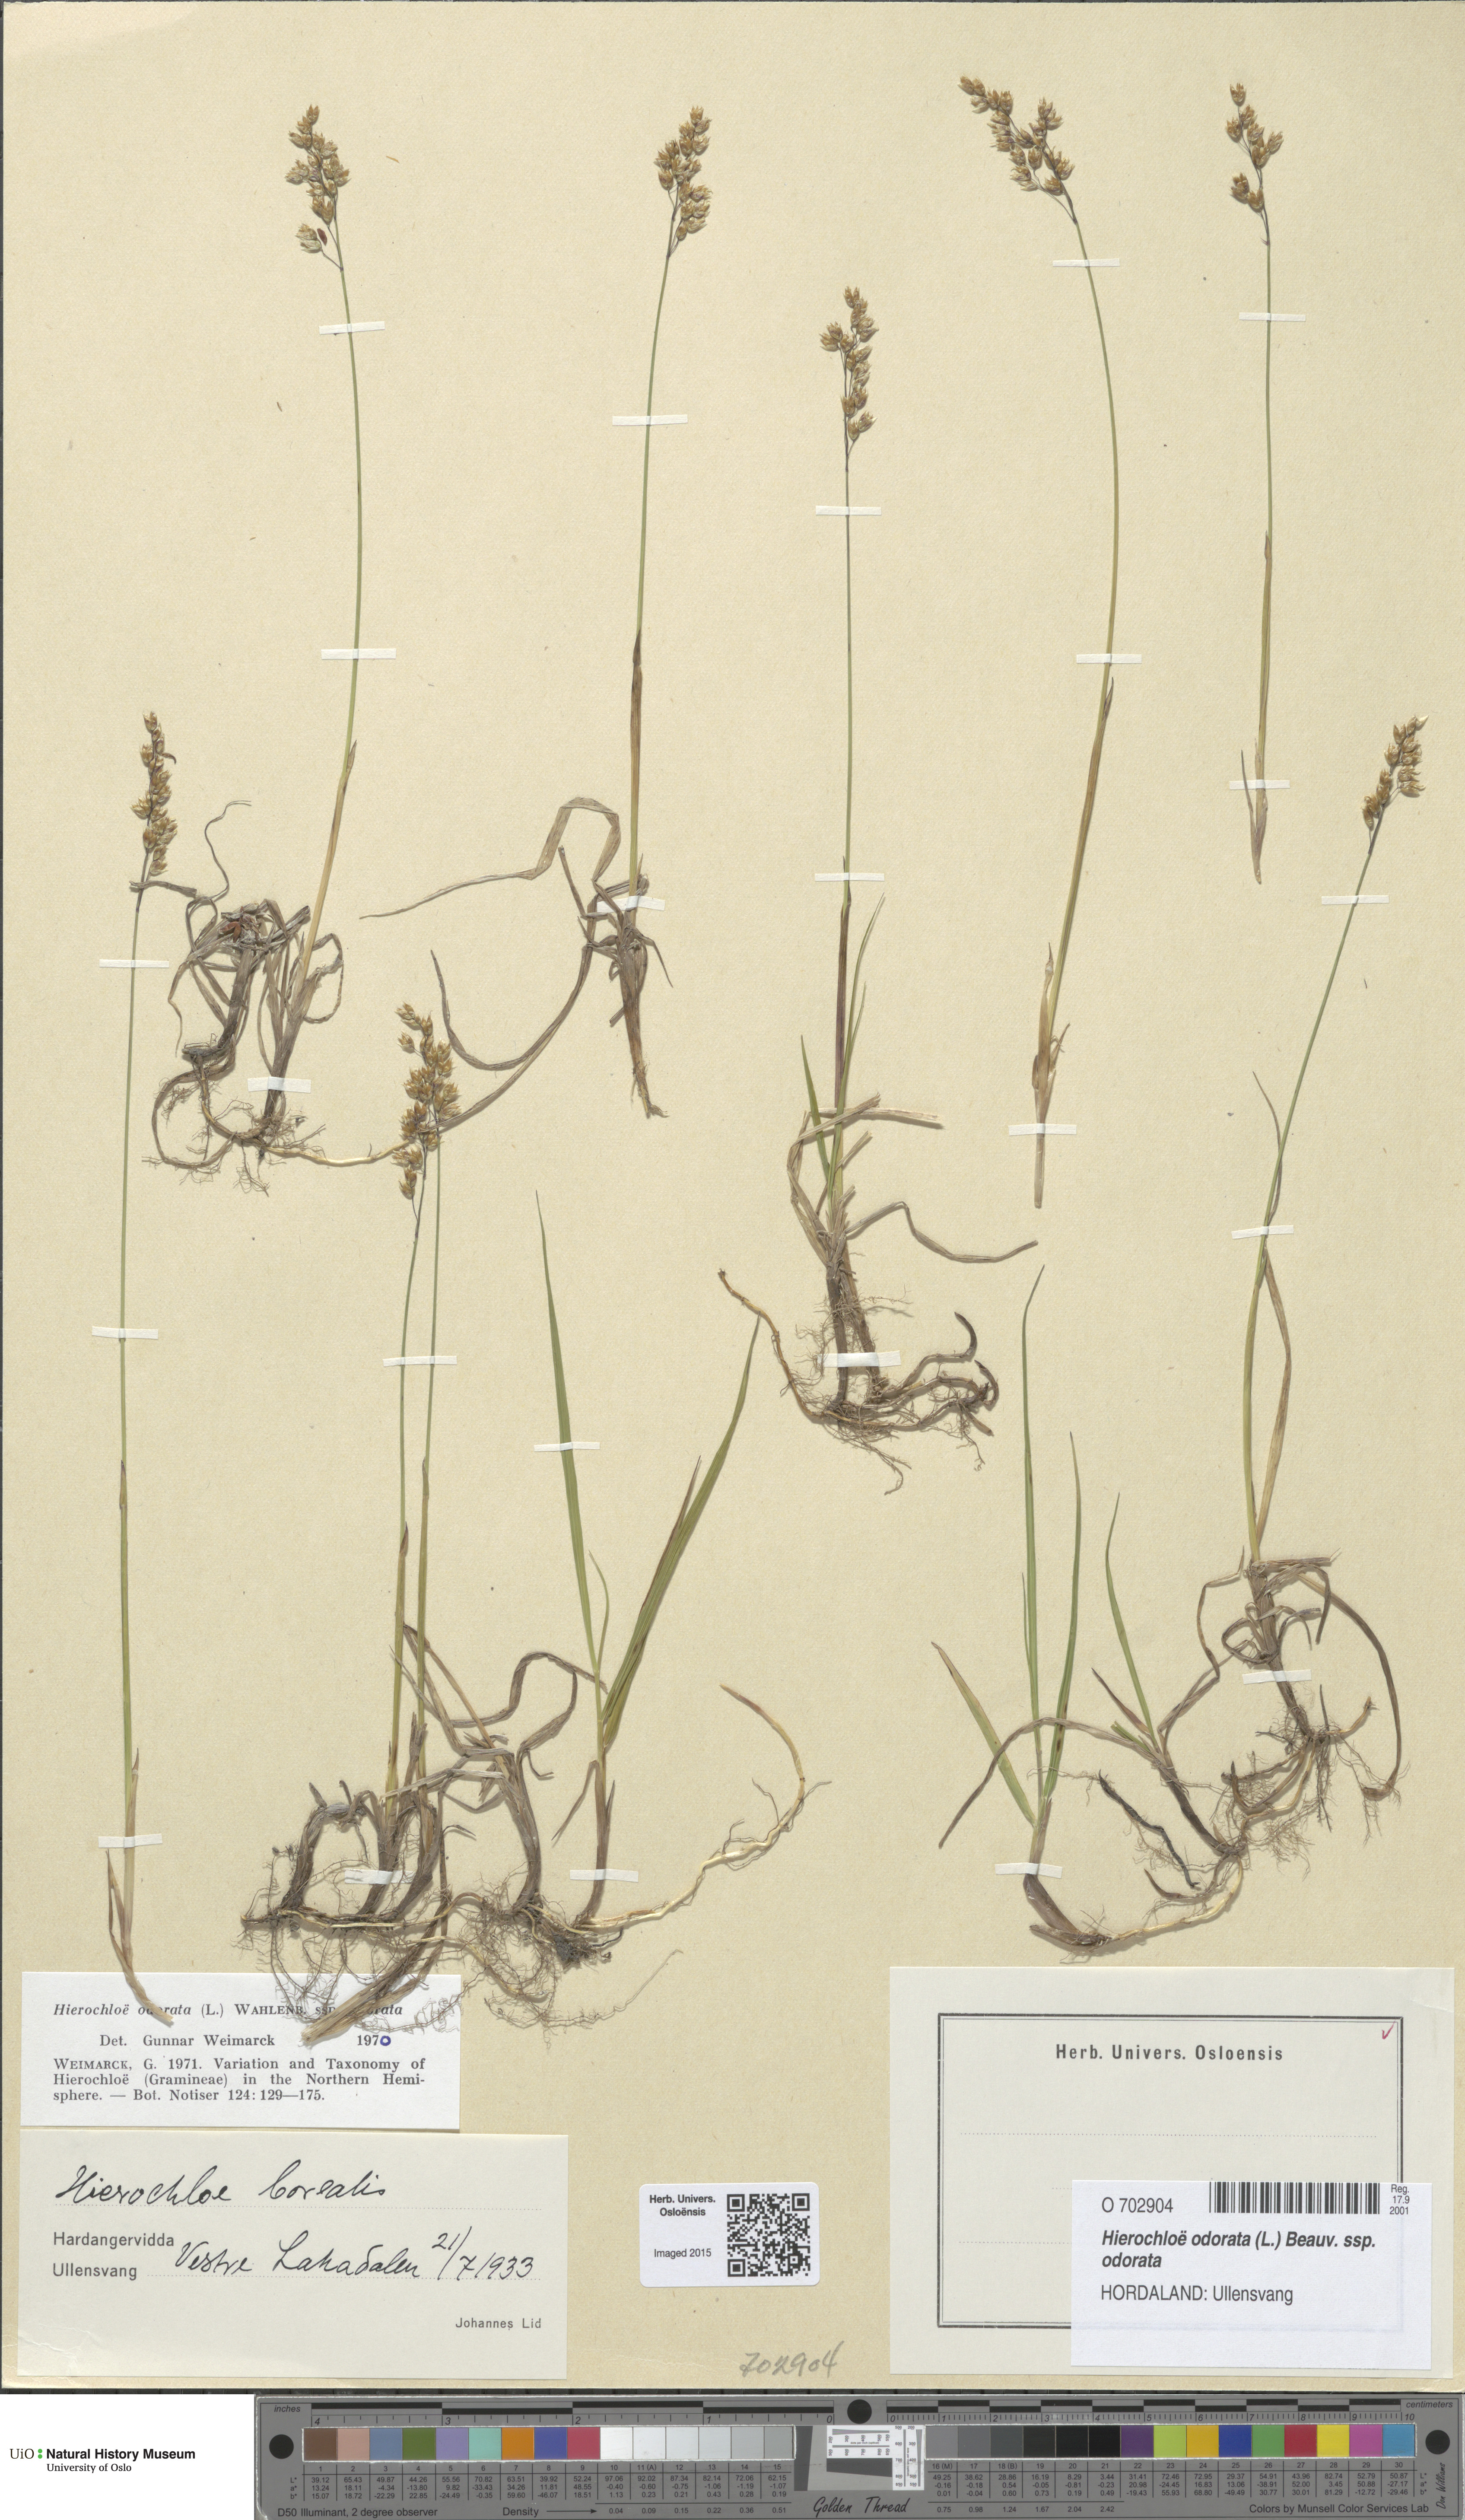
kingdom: Plantae
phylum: Tracheophyta
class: Liliopsida
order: Poales
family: Poaceae
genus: Anthoxanthum
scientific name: Anthoxanthum nitens
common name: Holy grass
